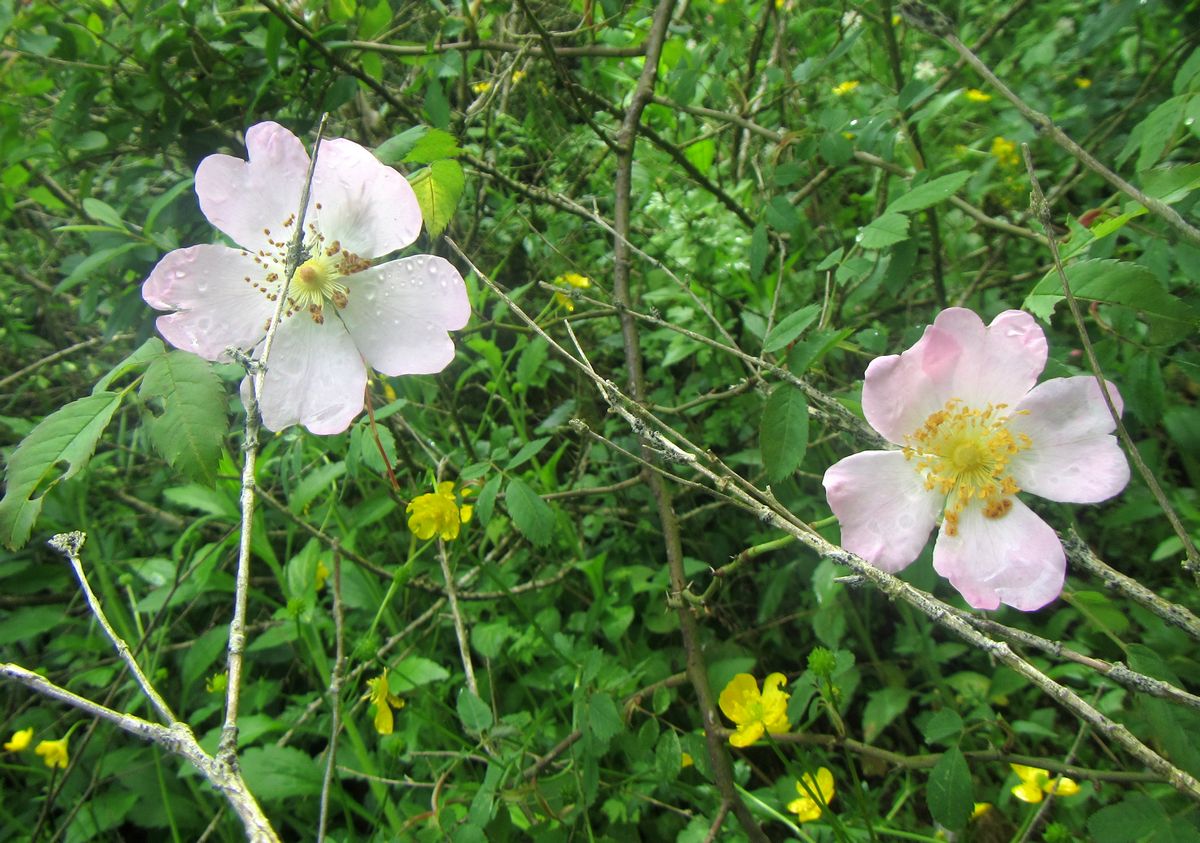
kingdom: Plantae
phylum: Tracheophyta
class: Magnoliopsida
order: Rosales
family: Rosaceae
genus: Rosa
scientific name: Rosa
